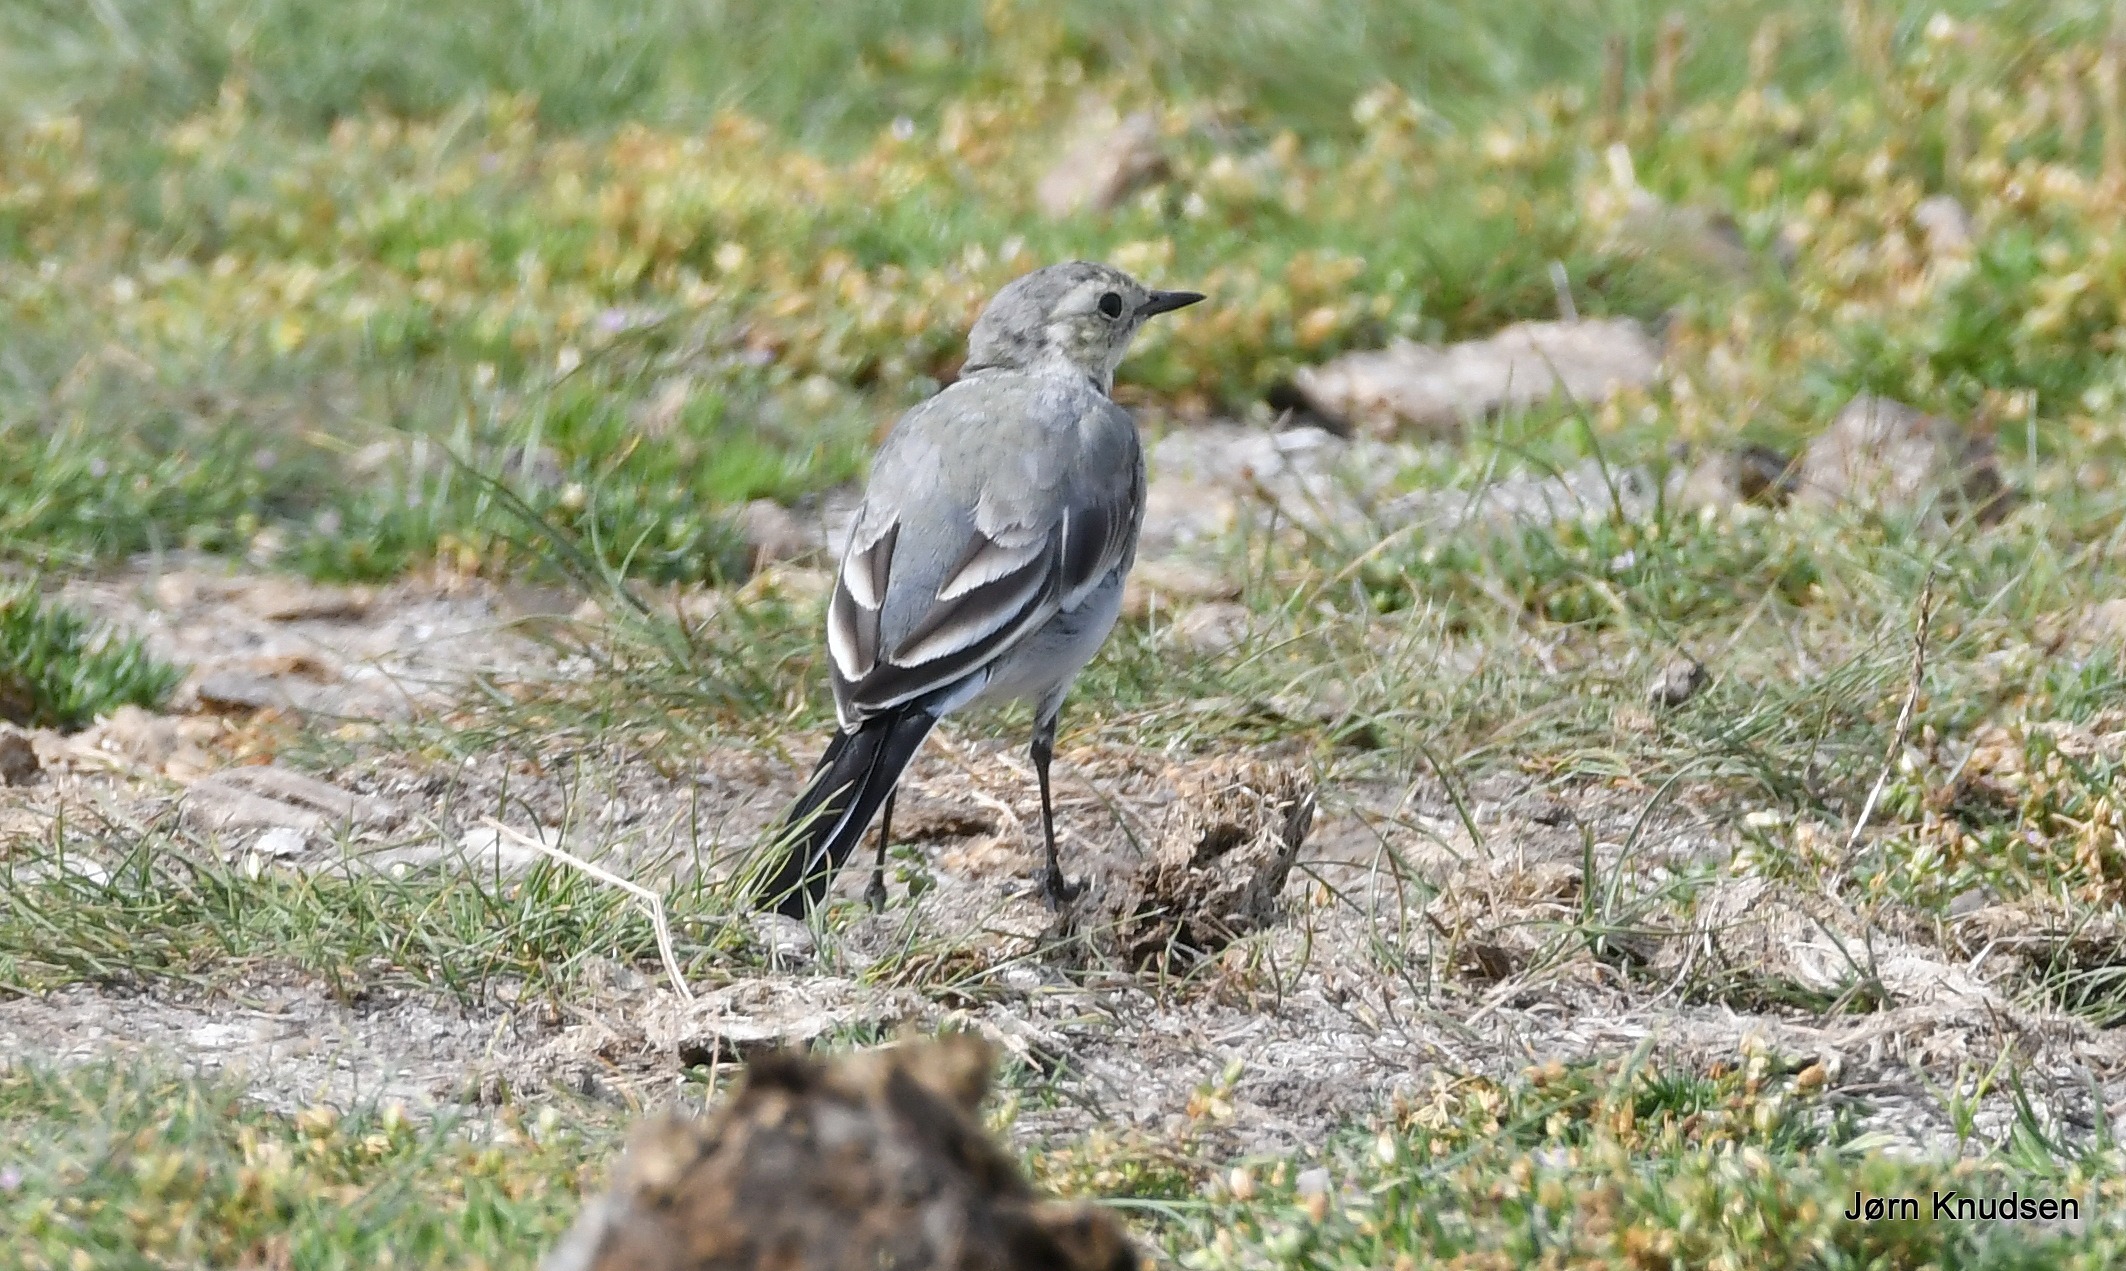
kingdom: Animalia
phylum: Chordata
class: Aves
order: Passeriformes
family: Motacillidae
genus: Motacilla
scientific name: Motacilla alba
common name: Hvid vipstjert
